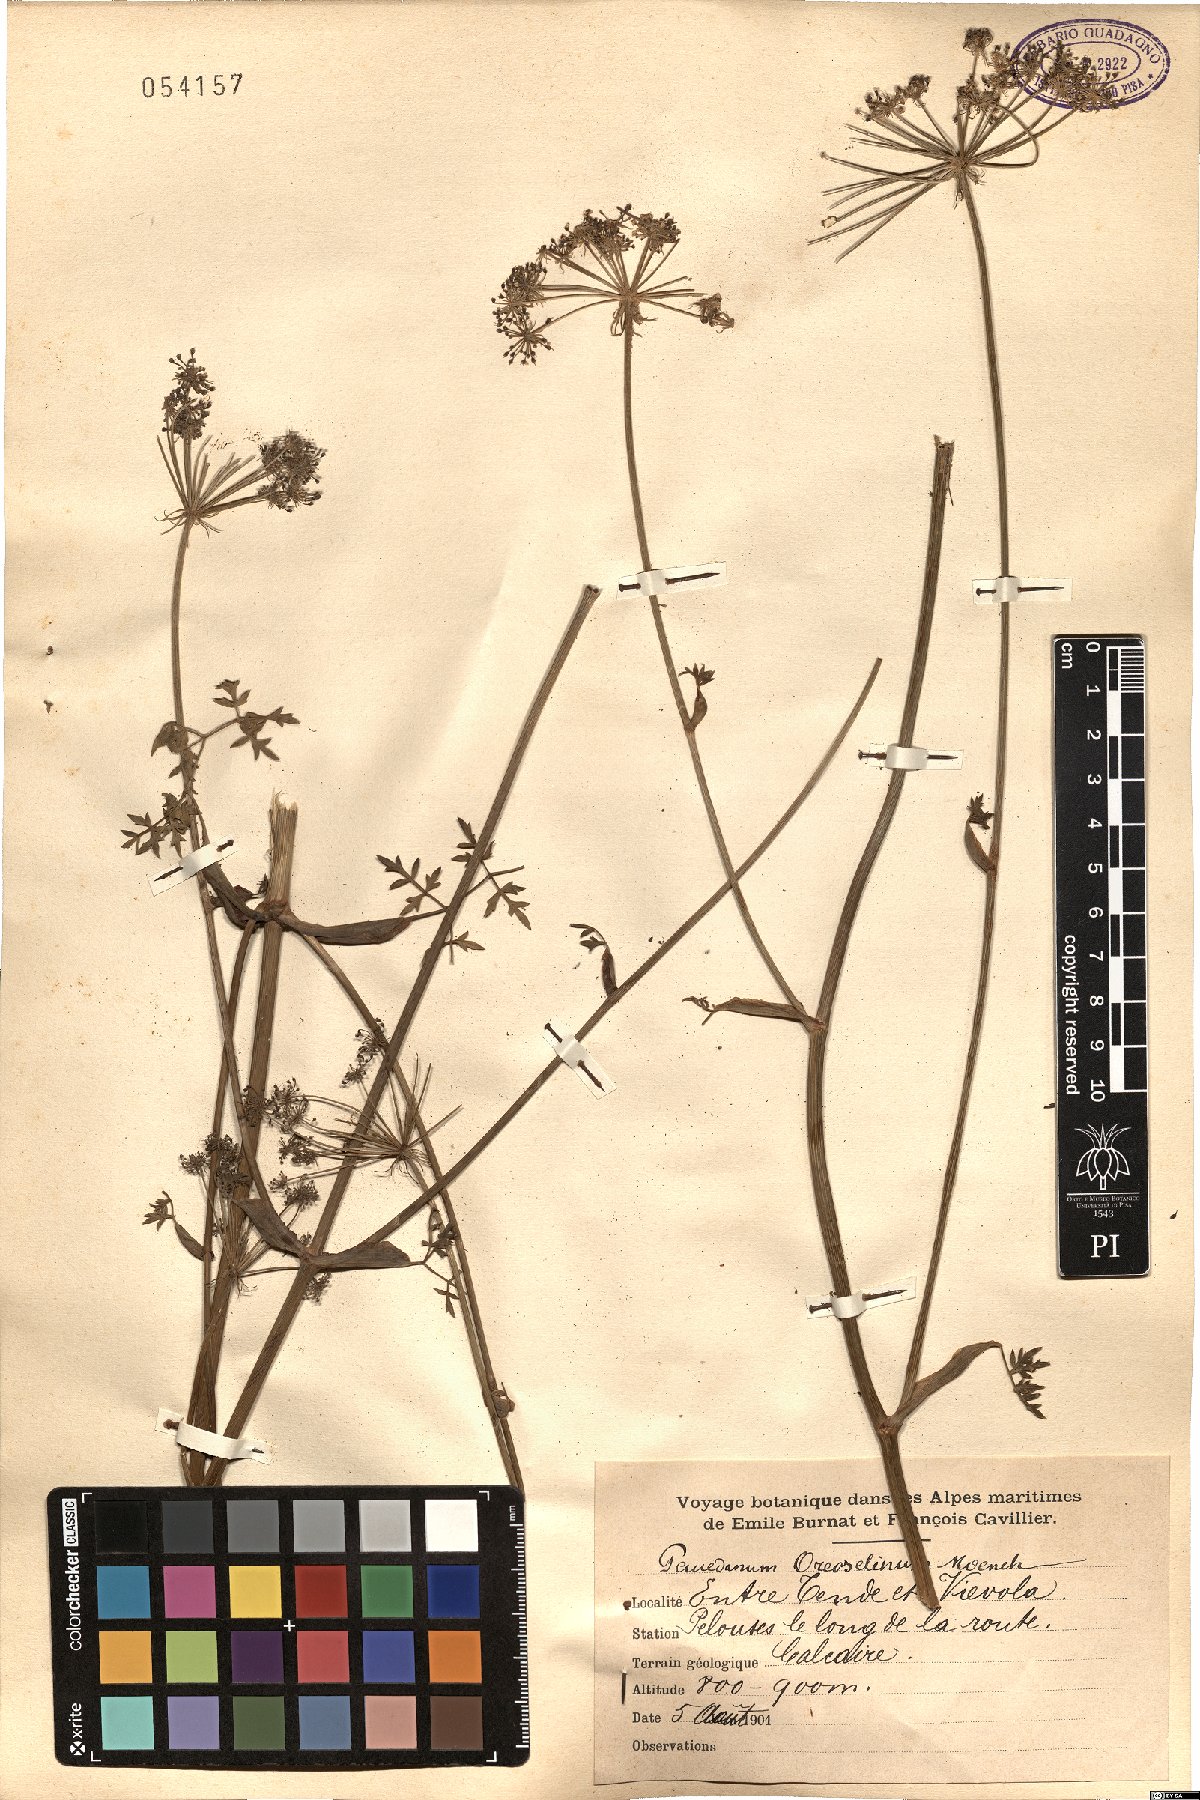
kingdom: Plantae
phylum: Tracheophyta
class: Magnoliopsida
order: Apiales
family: Apiaceae
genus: Oreoselinum
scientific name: Oreoselinum nigrum
